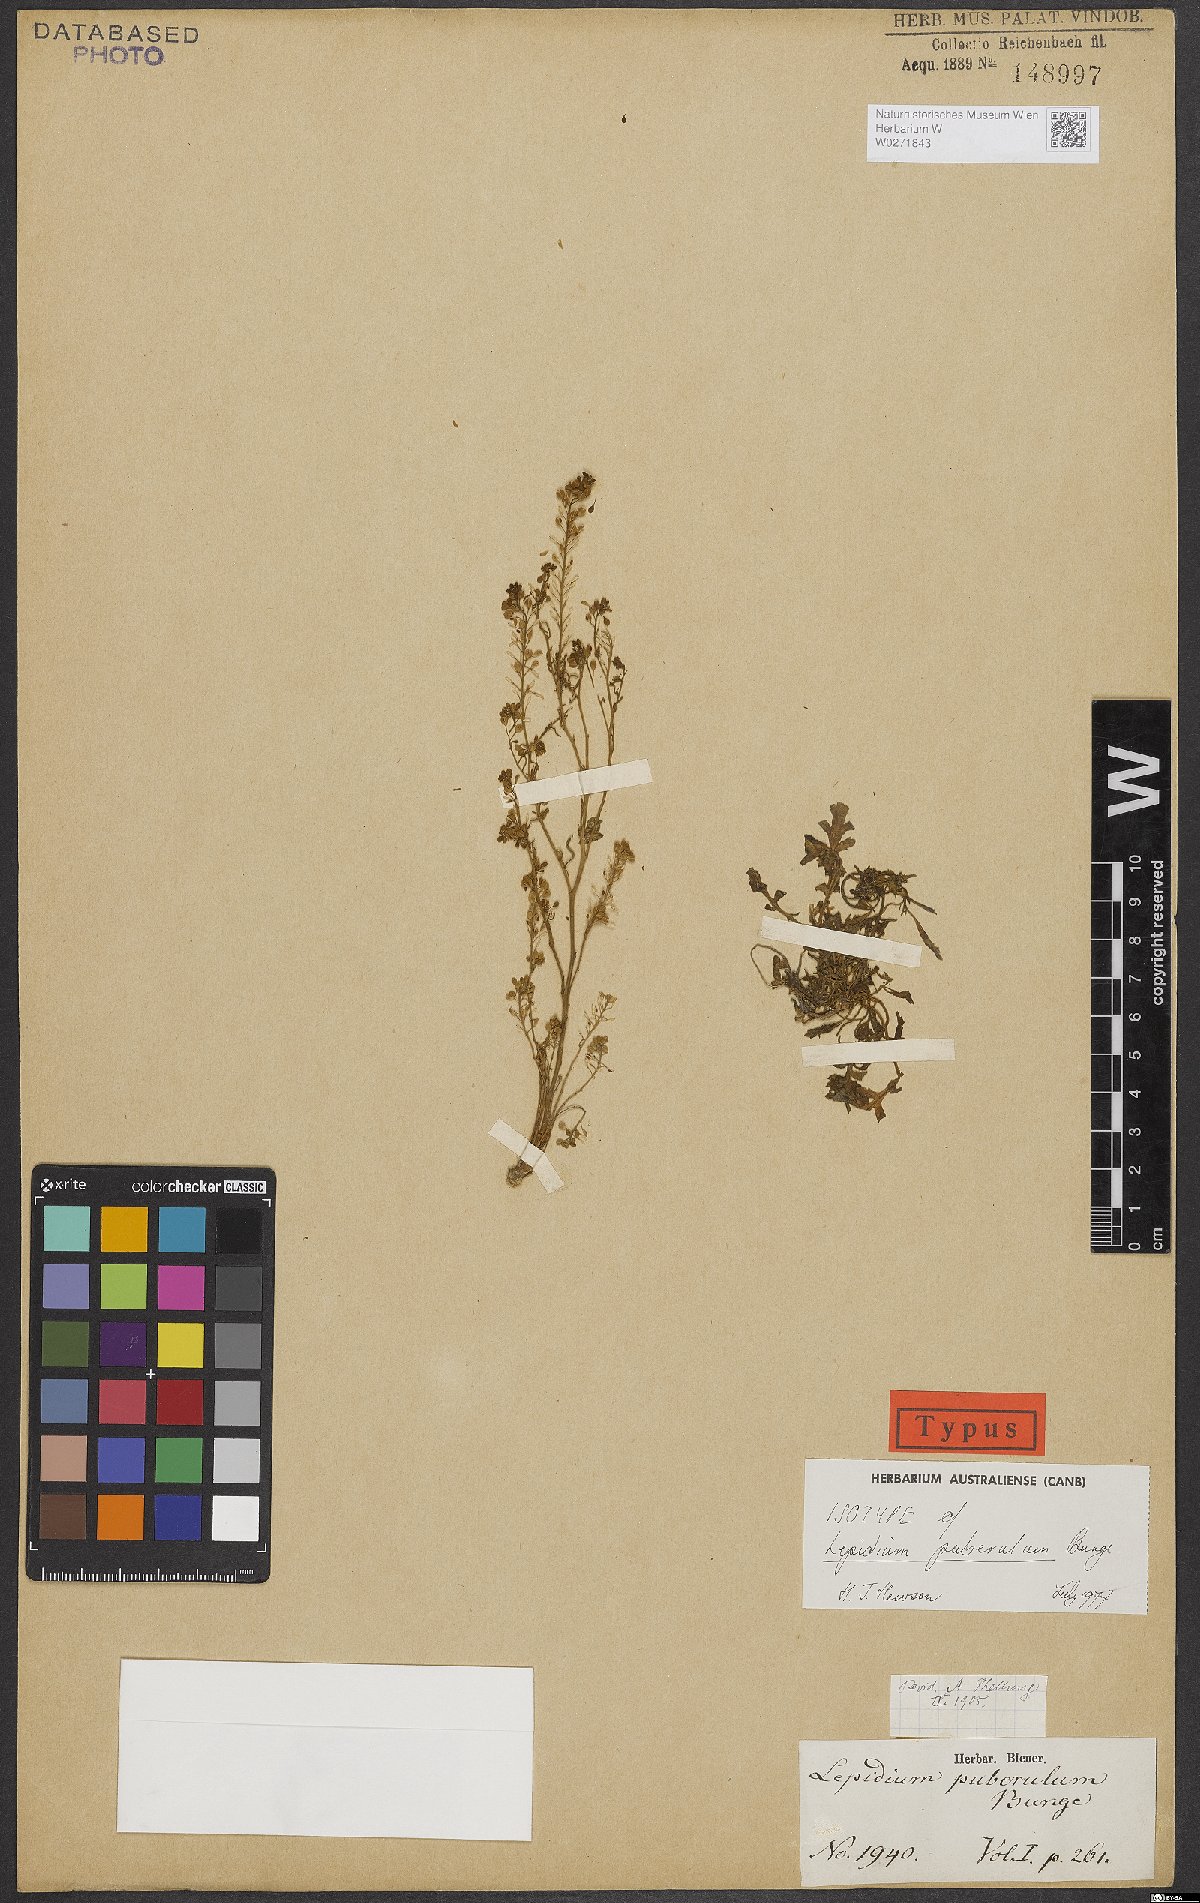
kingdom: Plantae
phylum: Tracheophyta
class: Magnoliopsida
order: Brassicales
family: Brassicaceae
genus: Lepidium
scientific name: Lepidium puberulum
